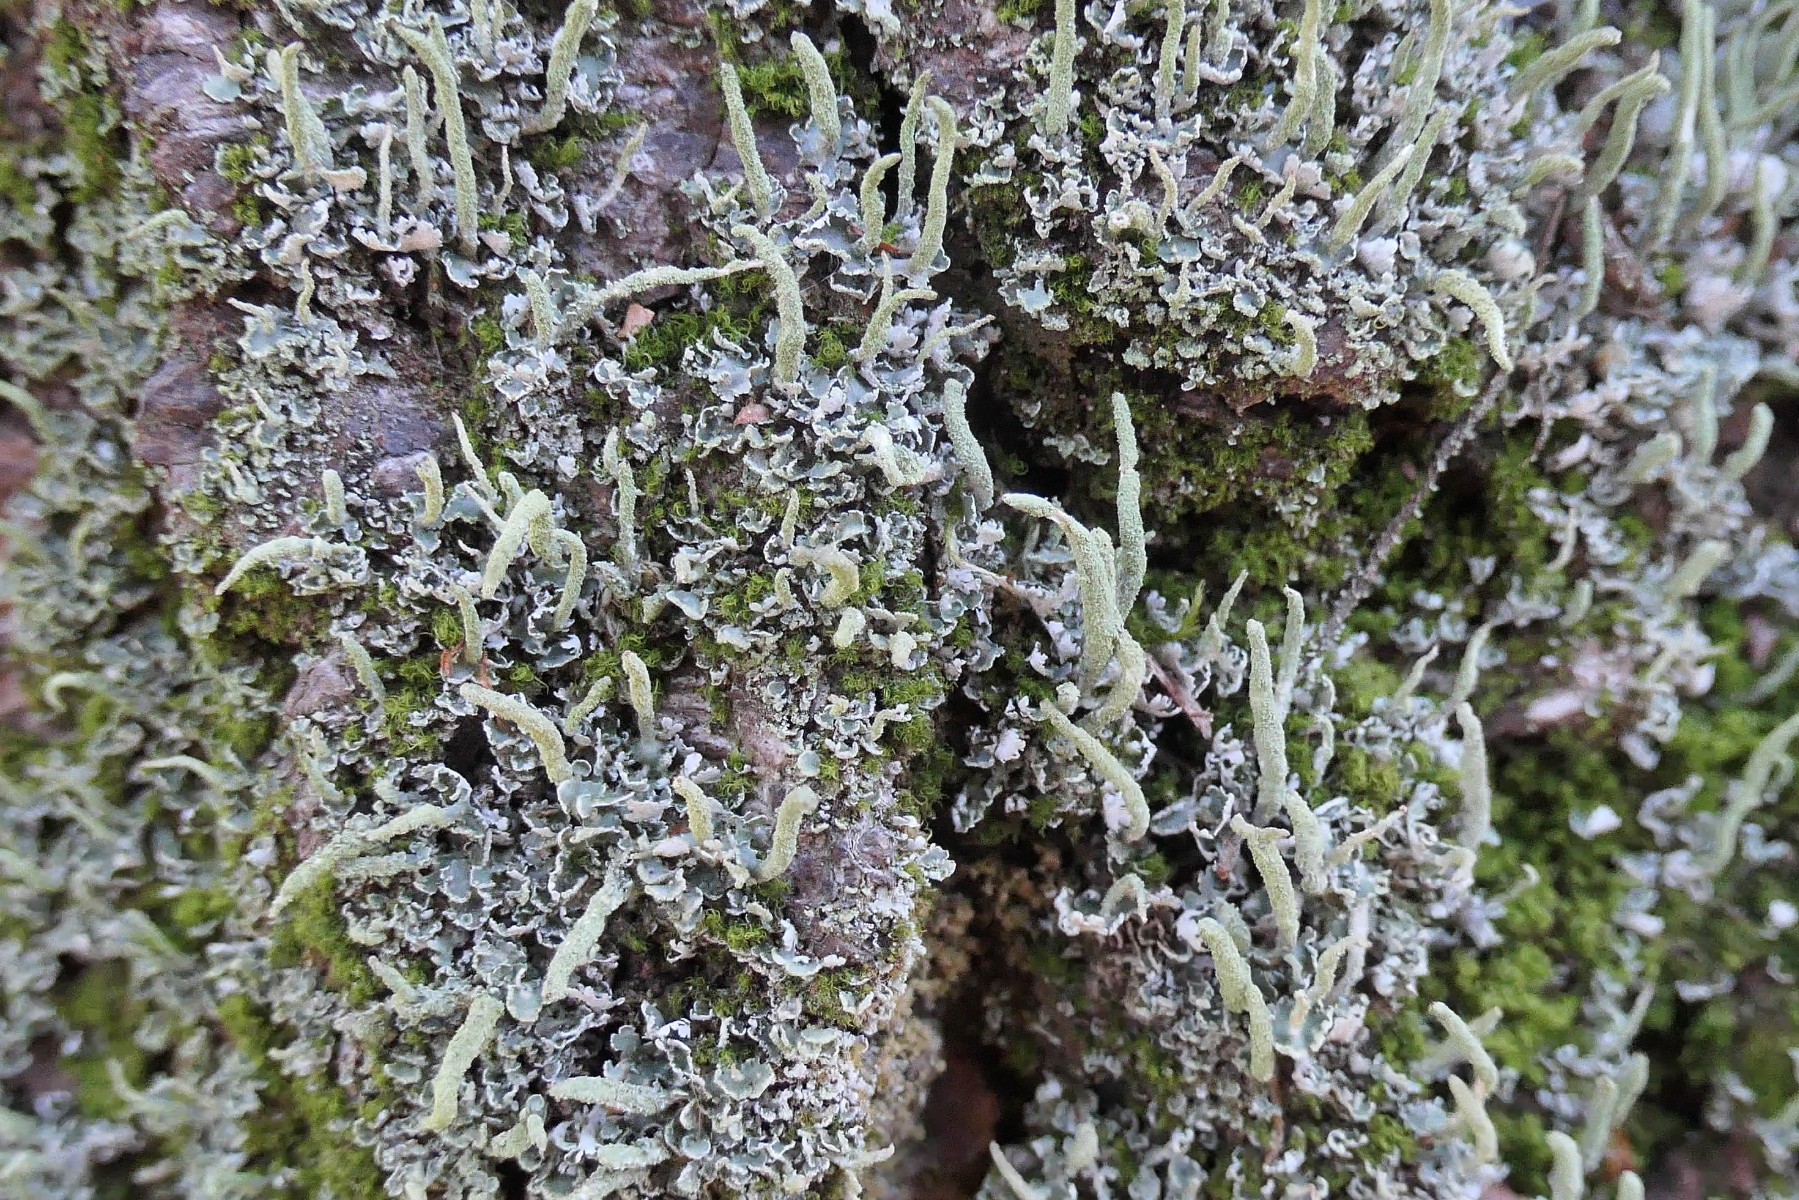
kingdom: Fungi
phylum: Ascomycota
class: Lecanoromycetes
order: Lecanorales
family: Cladoniaceae
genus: Cladonia
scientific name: Cladonia coniocraea
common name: træfods-bægerlav
